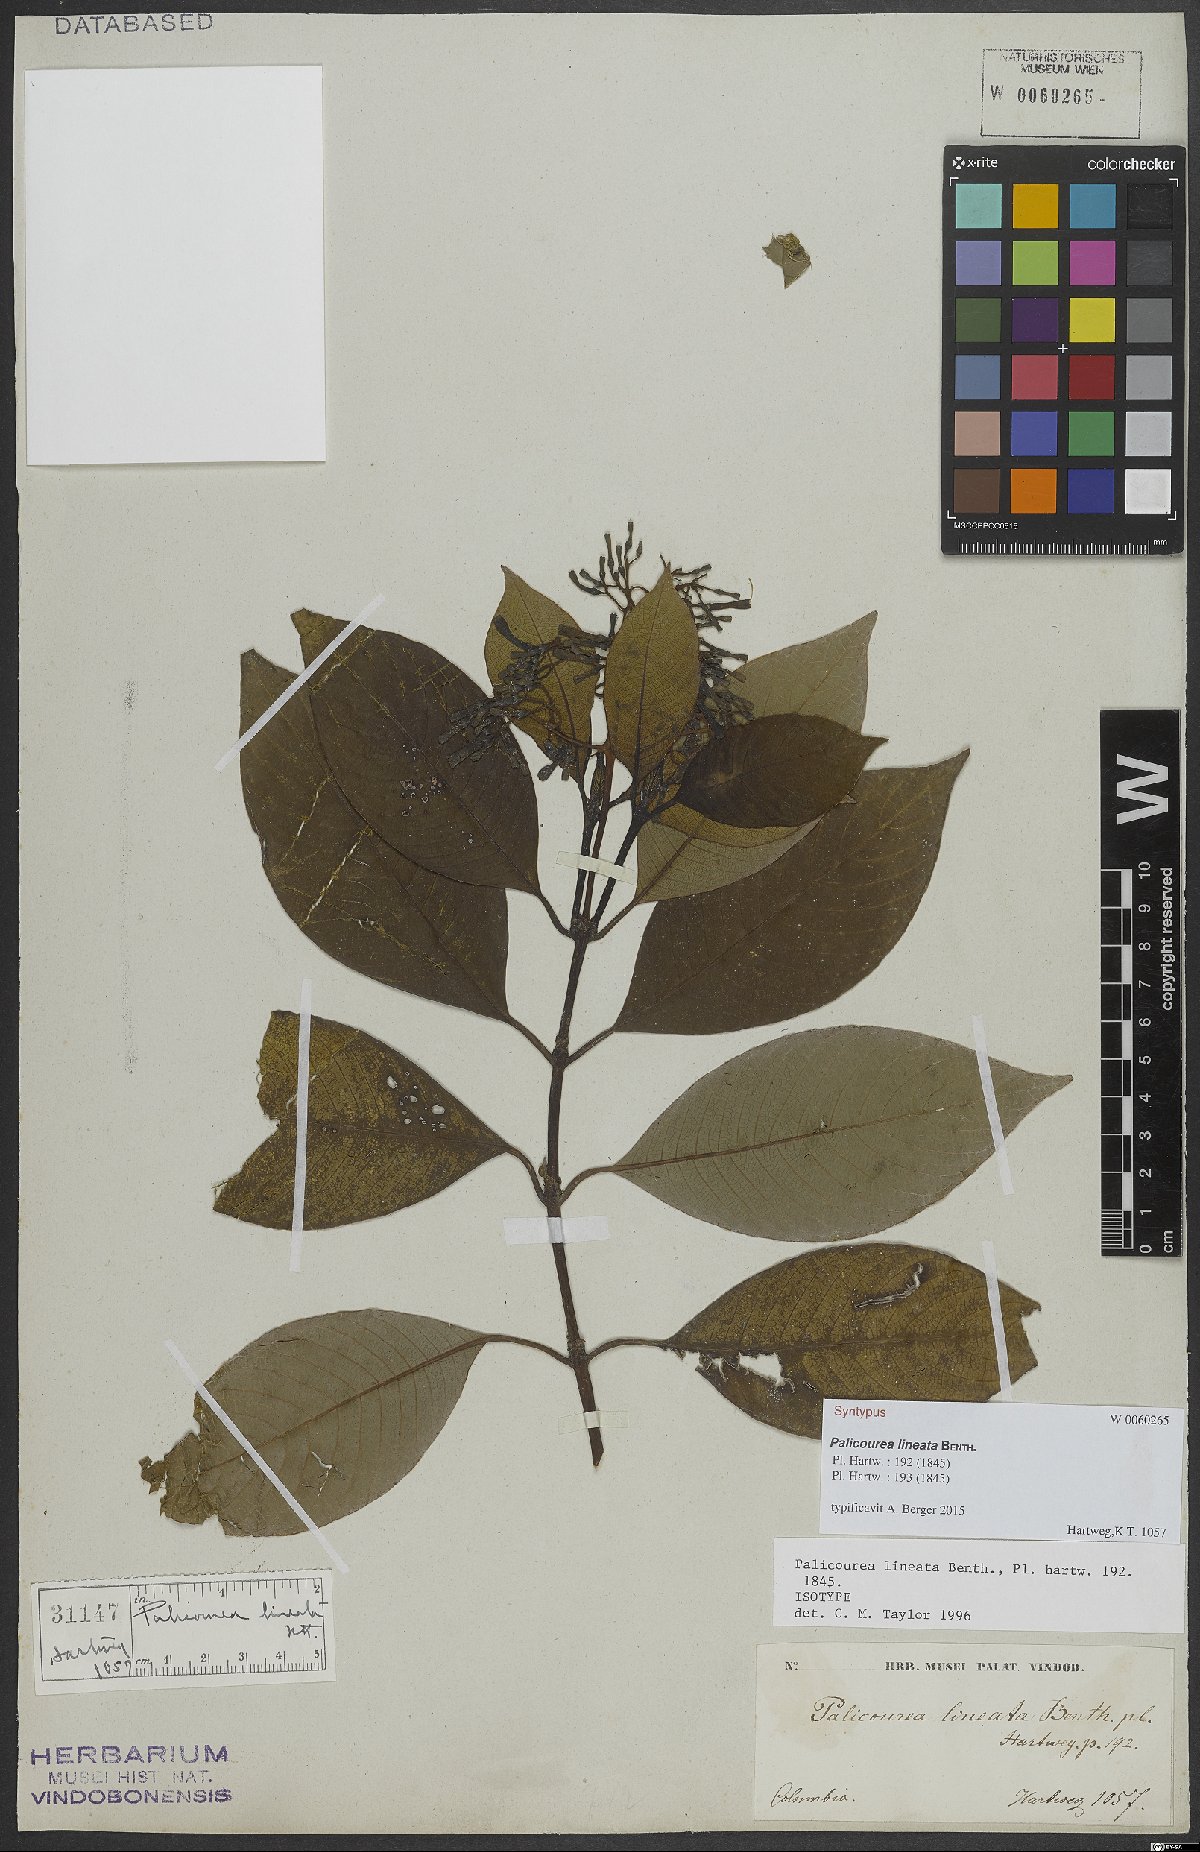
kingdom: Plantae
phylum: Tracheophyta
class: Magnoliopsida
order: Gentianales
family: Rubiaceae
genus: Palicourea
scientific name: Palicourea lineata
